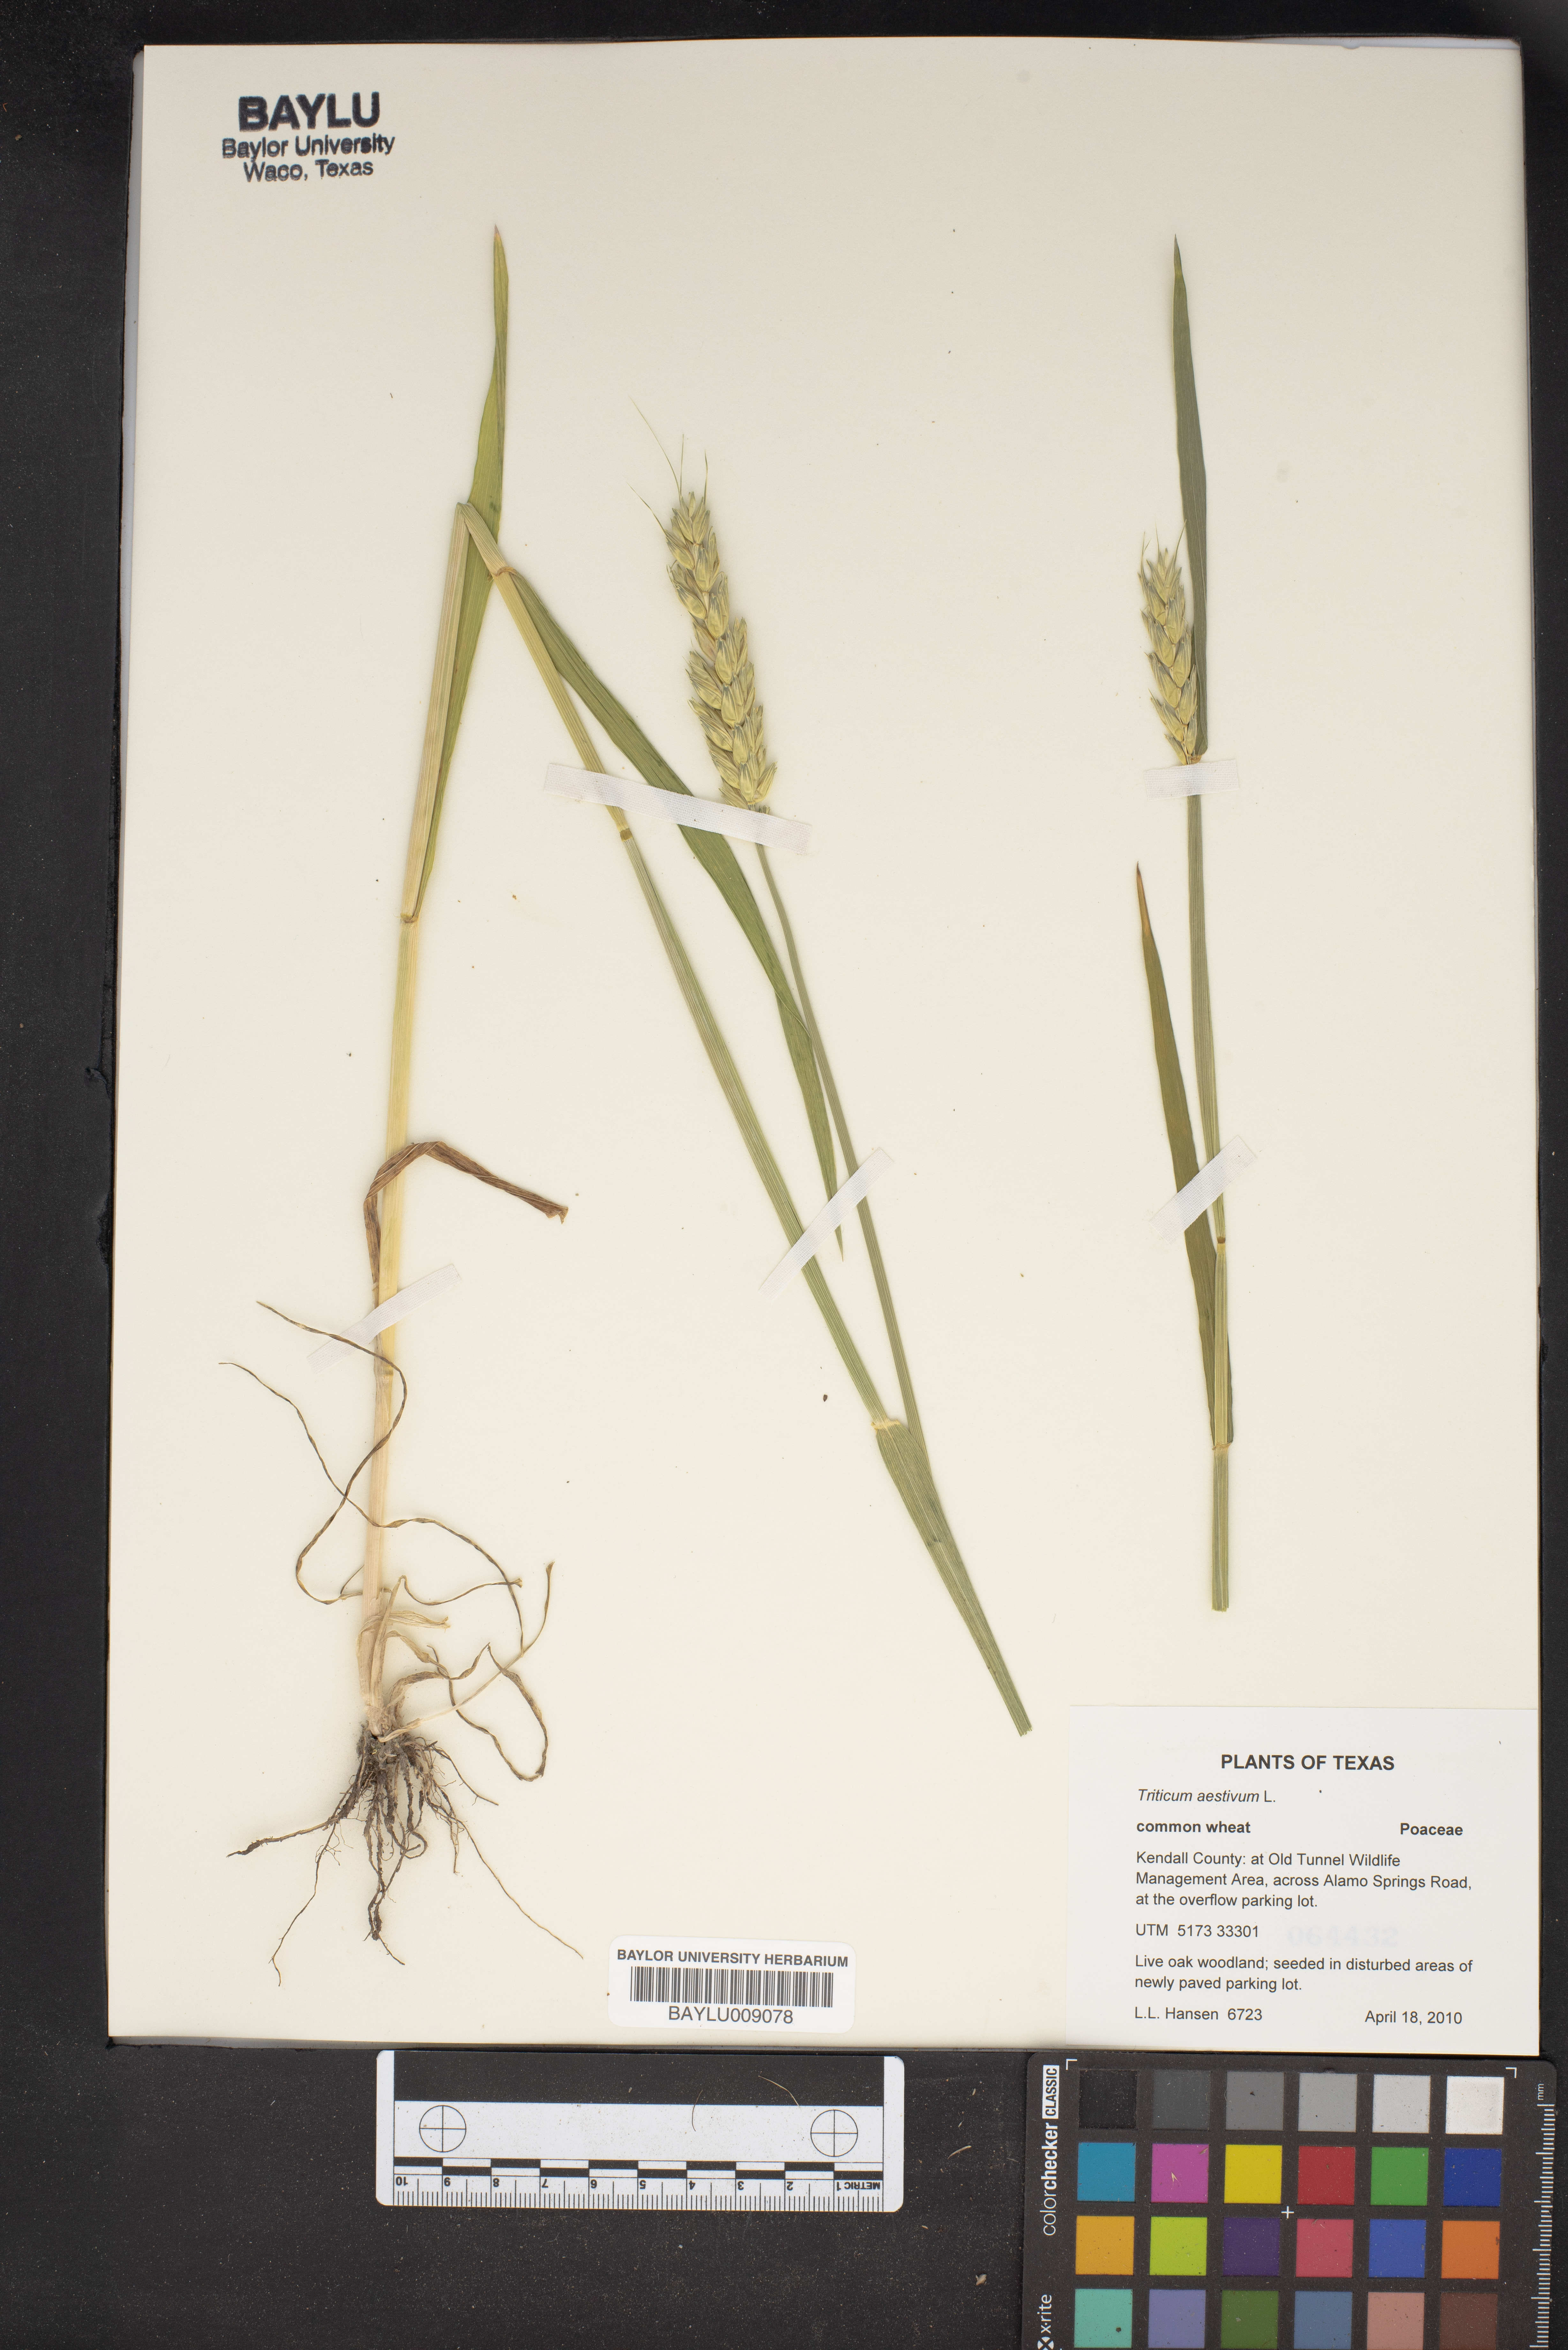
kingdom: Plantae
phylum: Tracheophyta
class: Liliopsida
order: Poales
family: Poaceae
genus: Triticum
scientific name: Triticum aestivum
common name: Common wheat
